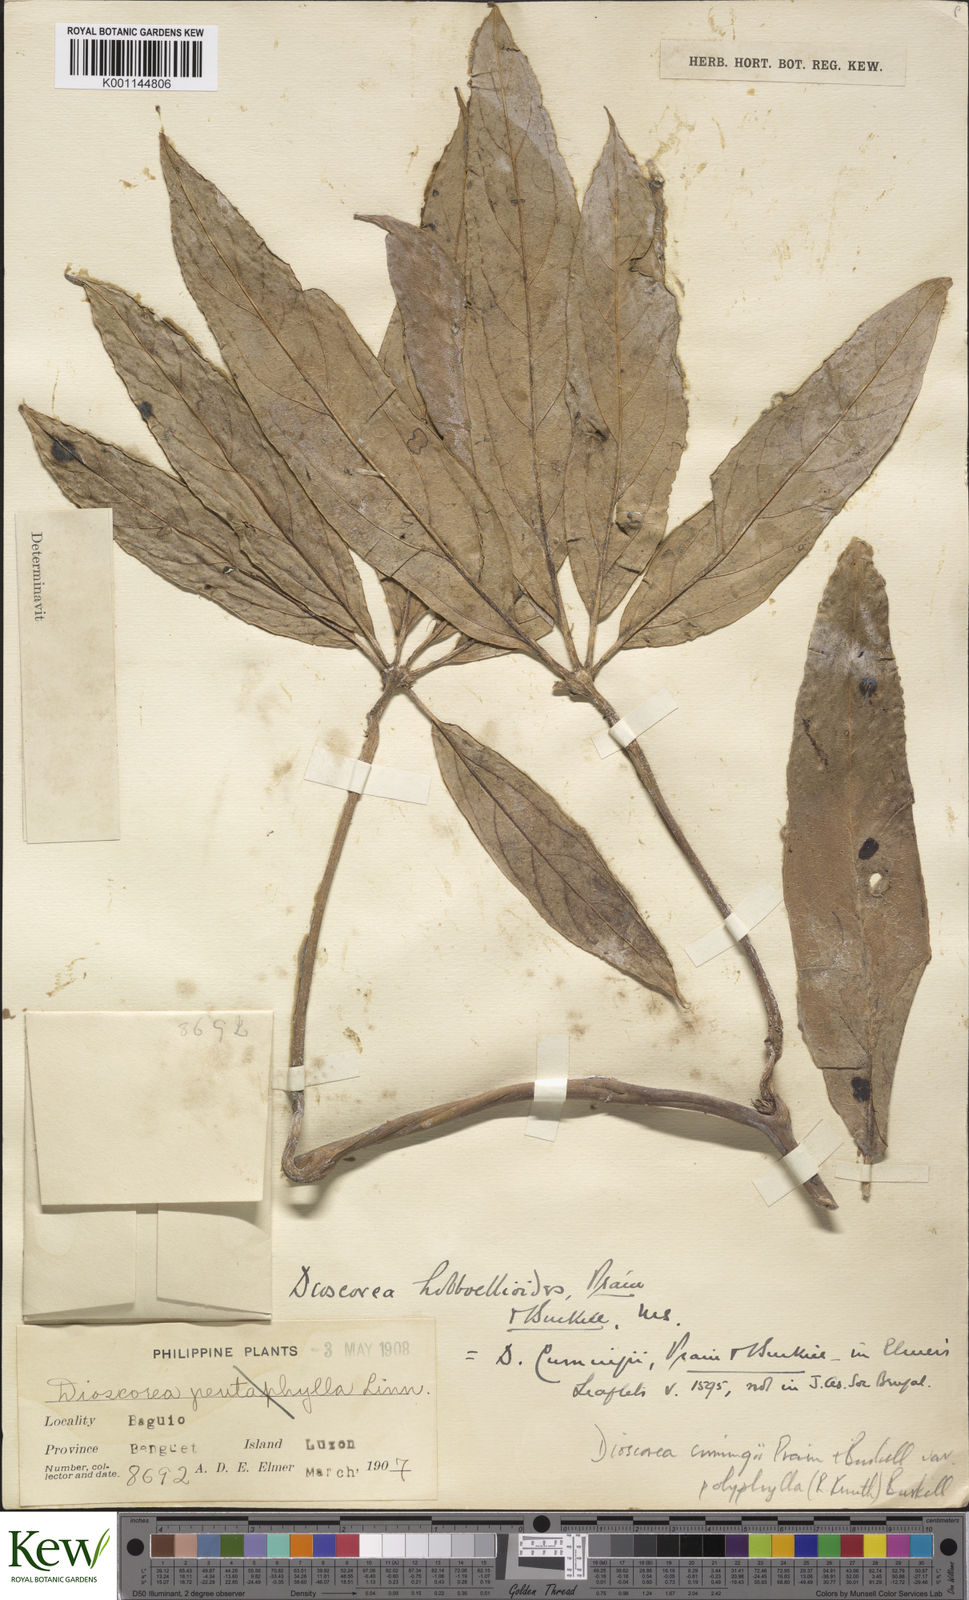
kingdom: Plantae
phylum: Tracheophyta
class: Liliopsida
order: Dioscoreales
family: Dioscoreaceae
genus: Dioscorea
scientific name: Dioscorea cumingii
